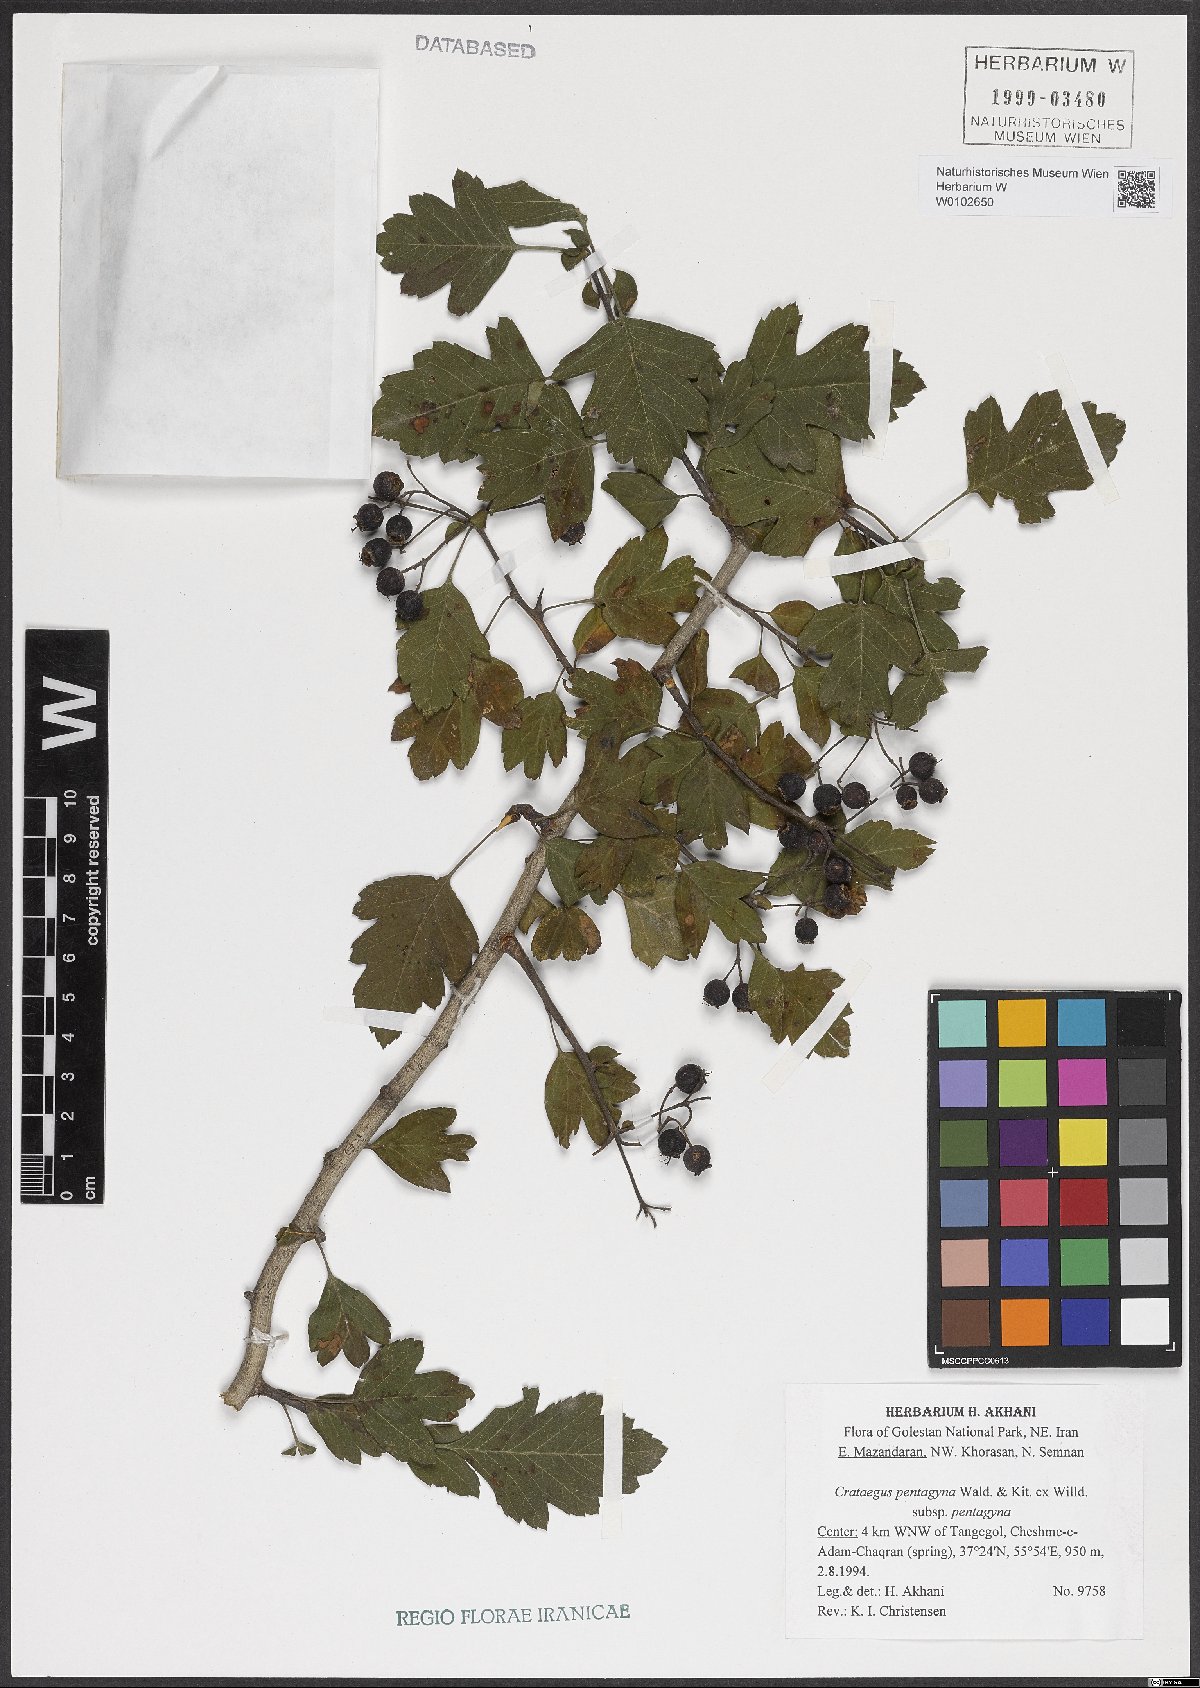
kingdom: Plantae
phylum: Tracheophyta
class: Magnoliopsida
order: Rosales
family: Rosaceae
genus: Crataegus
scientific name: Crataegus pentagyna
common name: Small-flowered black hawthorn
